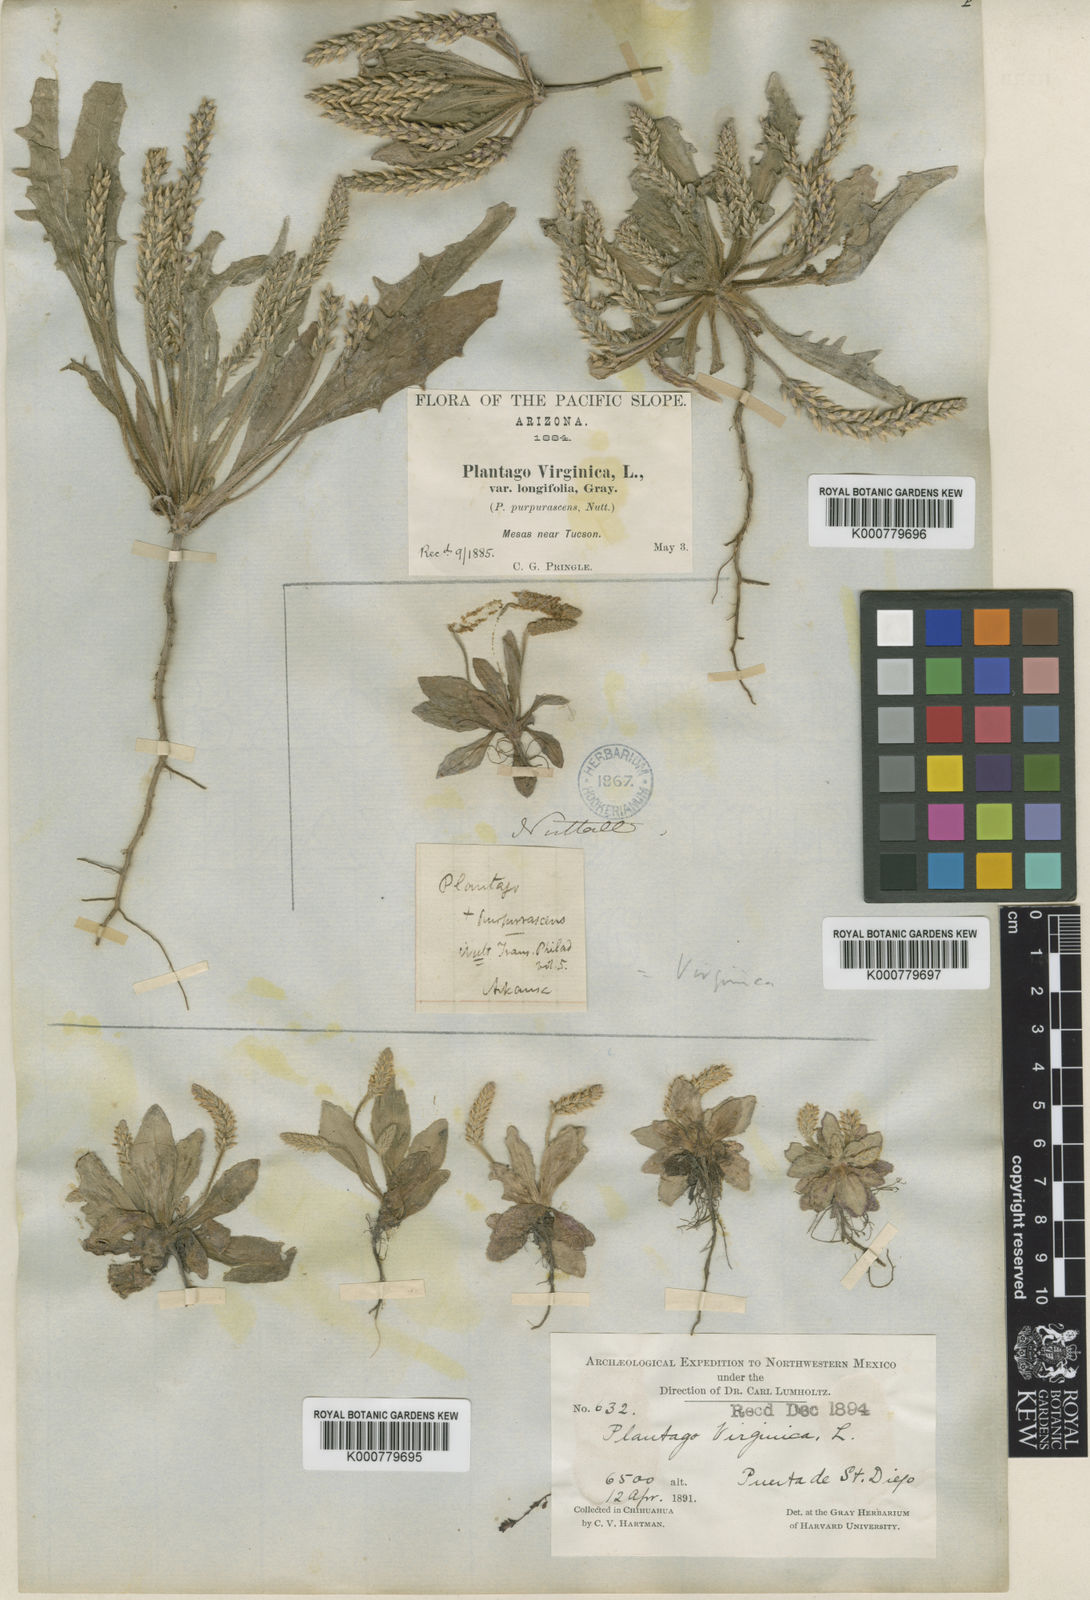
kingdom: Plantae
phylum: Tracheophyta
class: Magnoliopsida
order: Lamiales
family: Plantaginaceae
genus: Plantago
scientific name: Plantago virginica
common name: Hoary plantain
